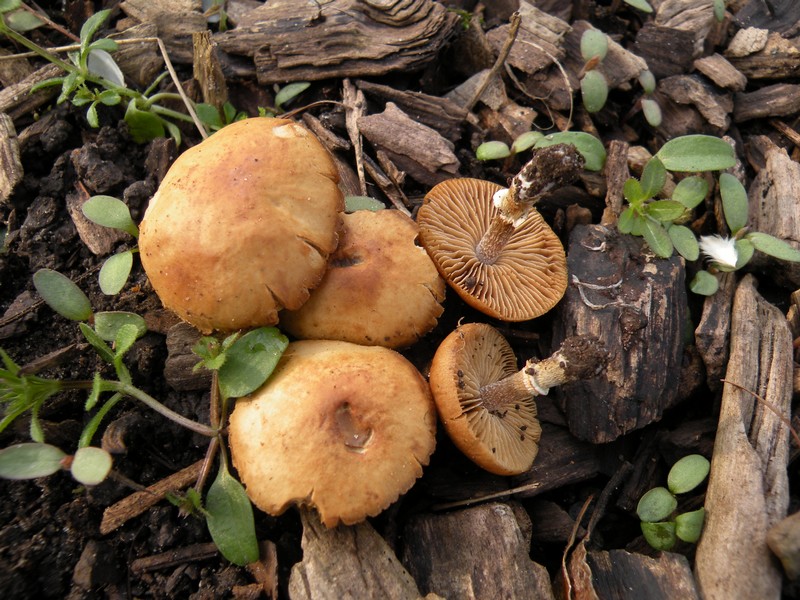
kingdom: Fungi
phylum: Basidiomycota
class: Agaricomycetes
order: Agaricales
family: Bolbitiaceae
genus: Conocybe
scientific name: Conocybe aporos
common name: tidlig dansehat
